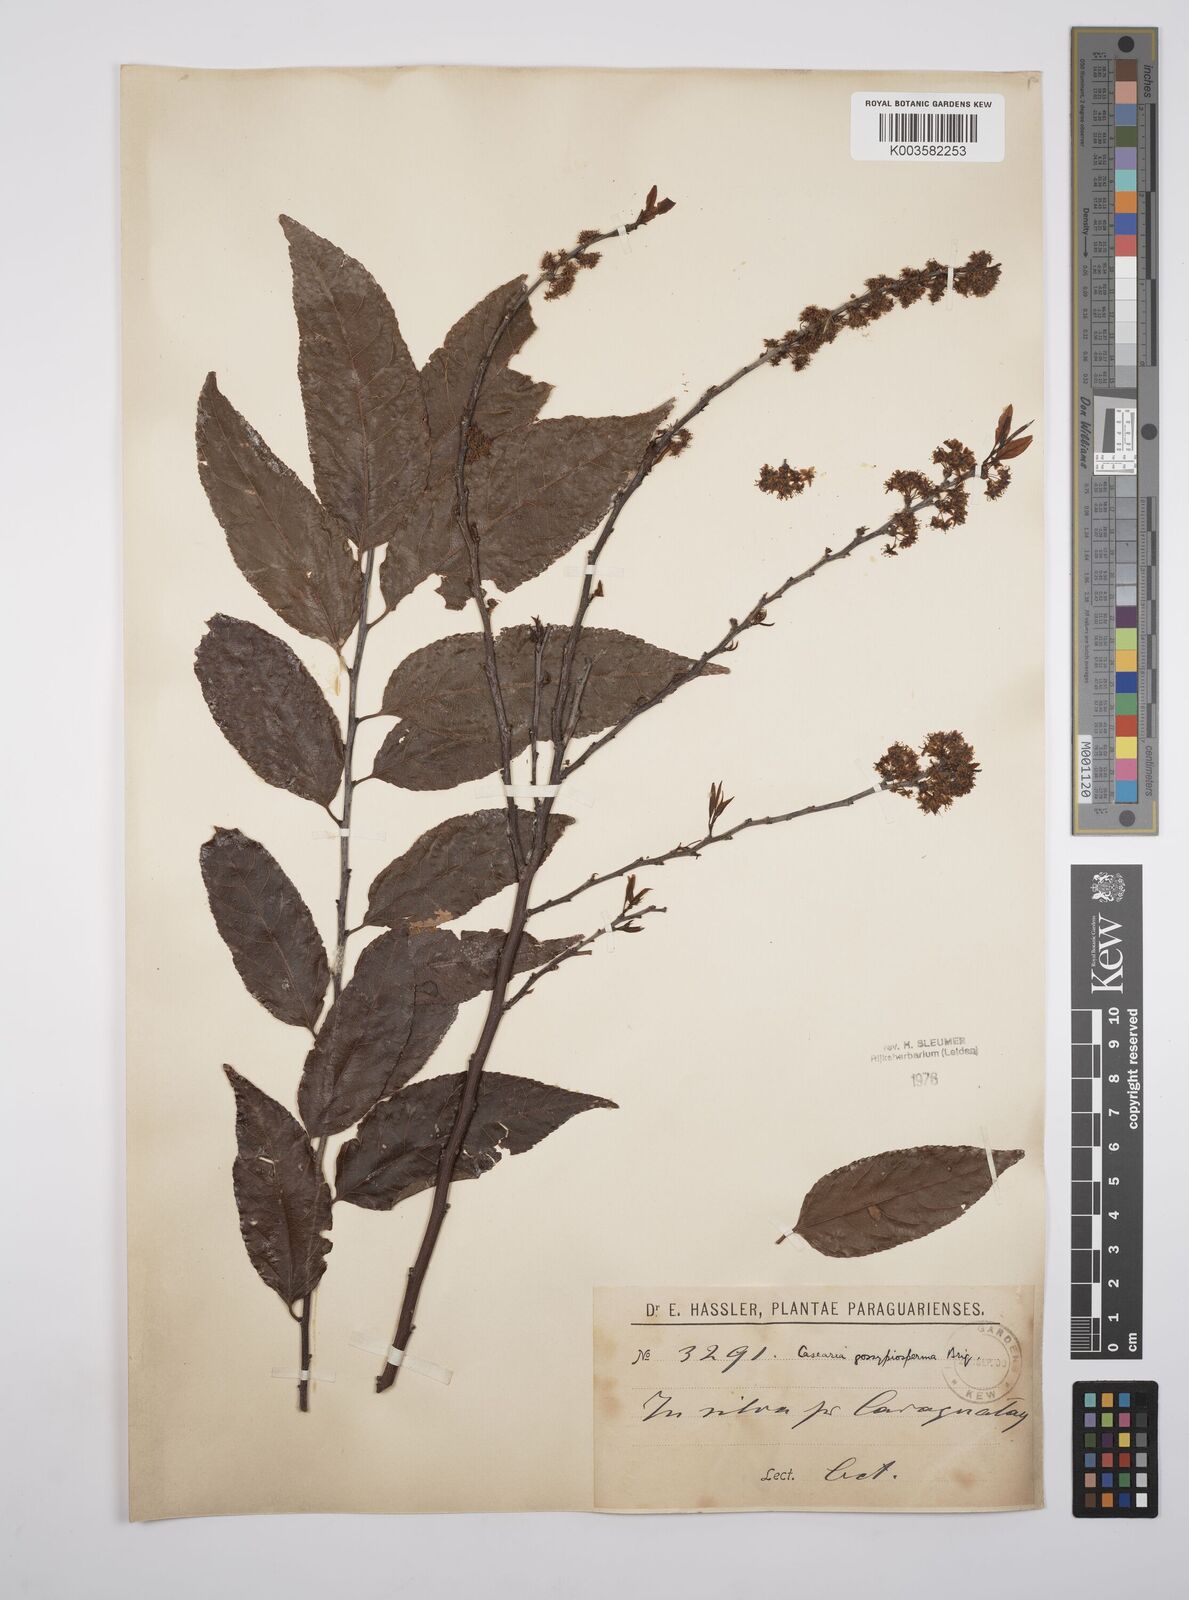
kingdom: Plantae
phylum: Tracheophyta
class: Magnoliopsida
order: Malpighiales
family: Salicaceae
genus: Casearia
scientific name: Casearia gossypiosperma
